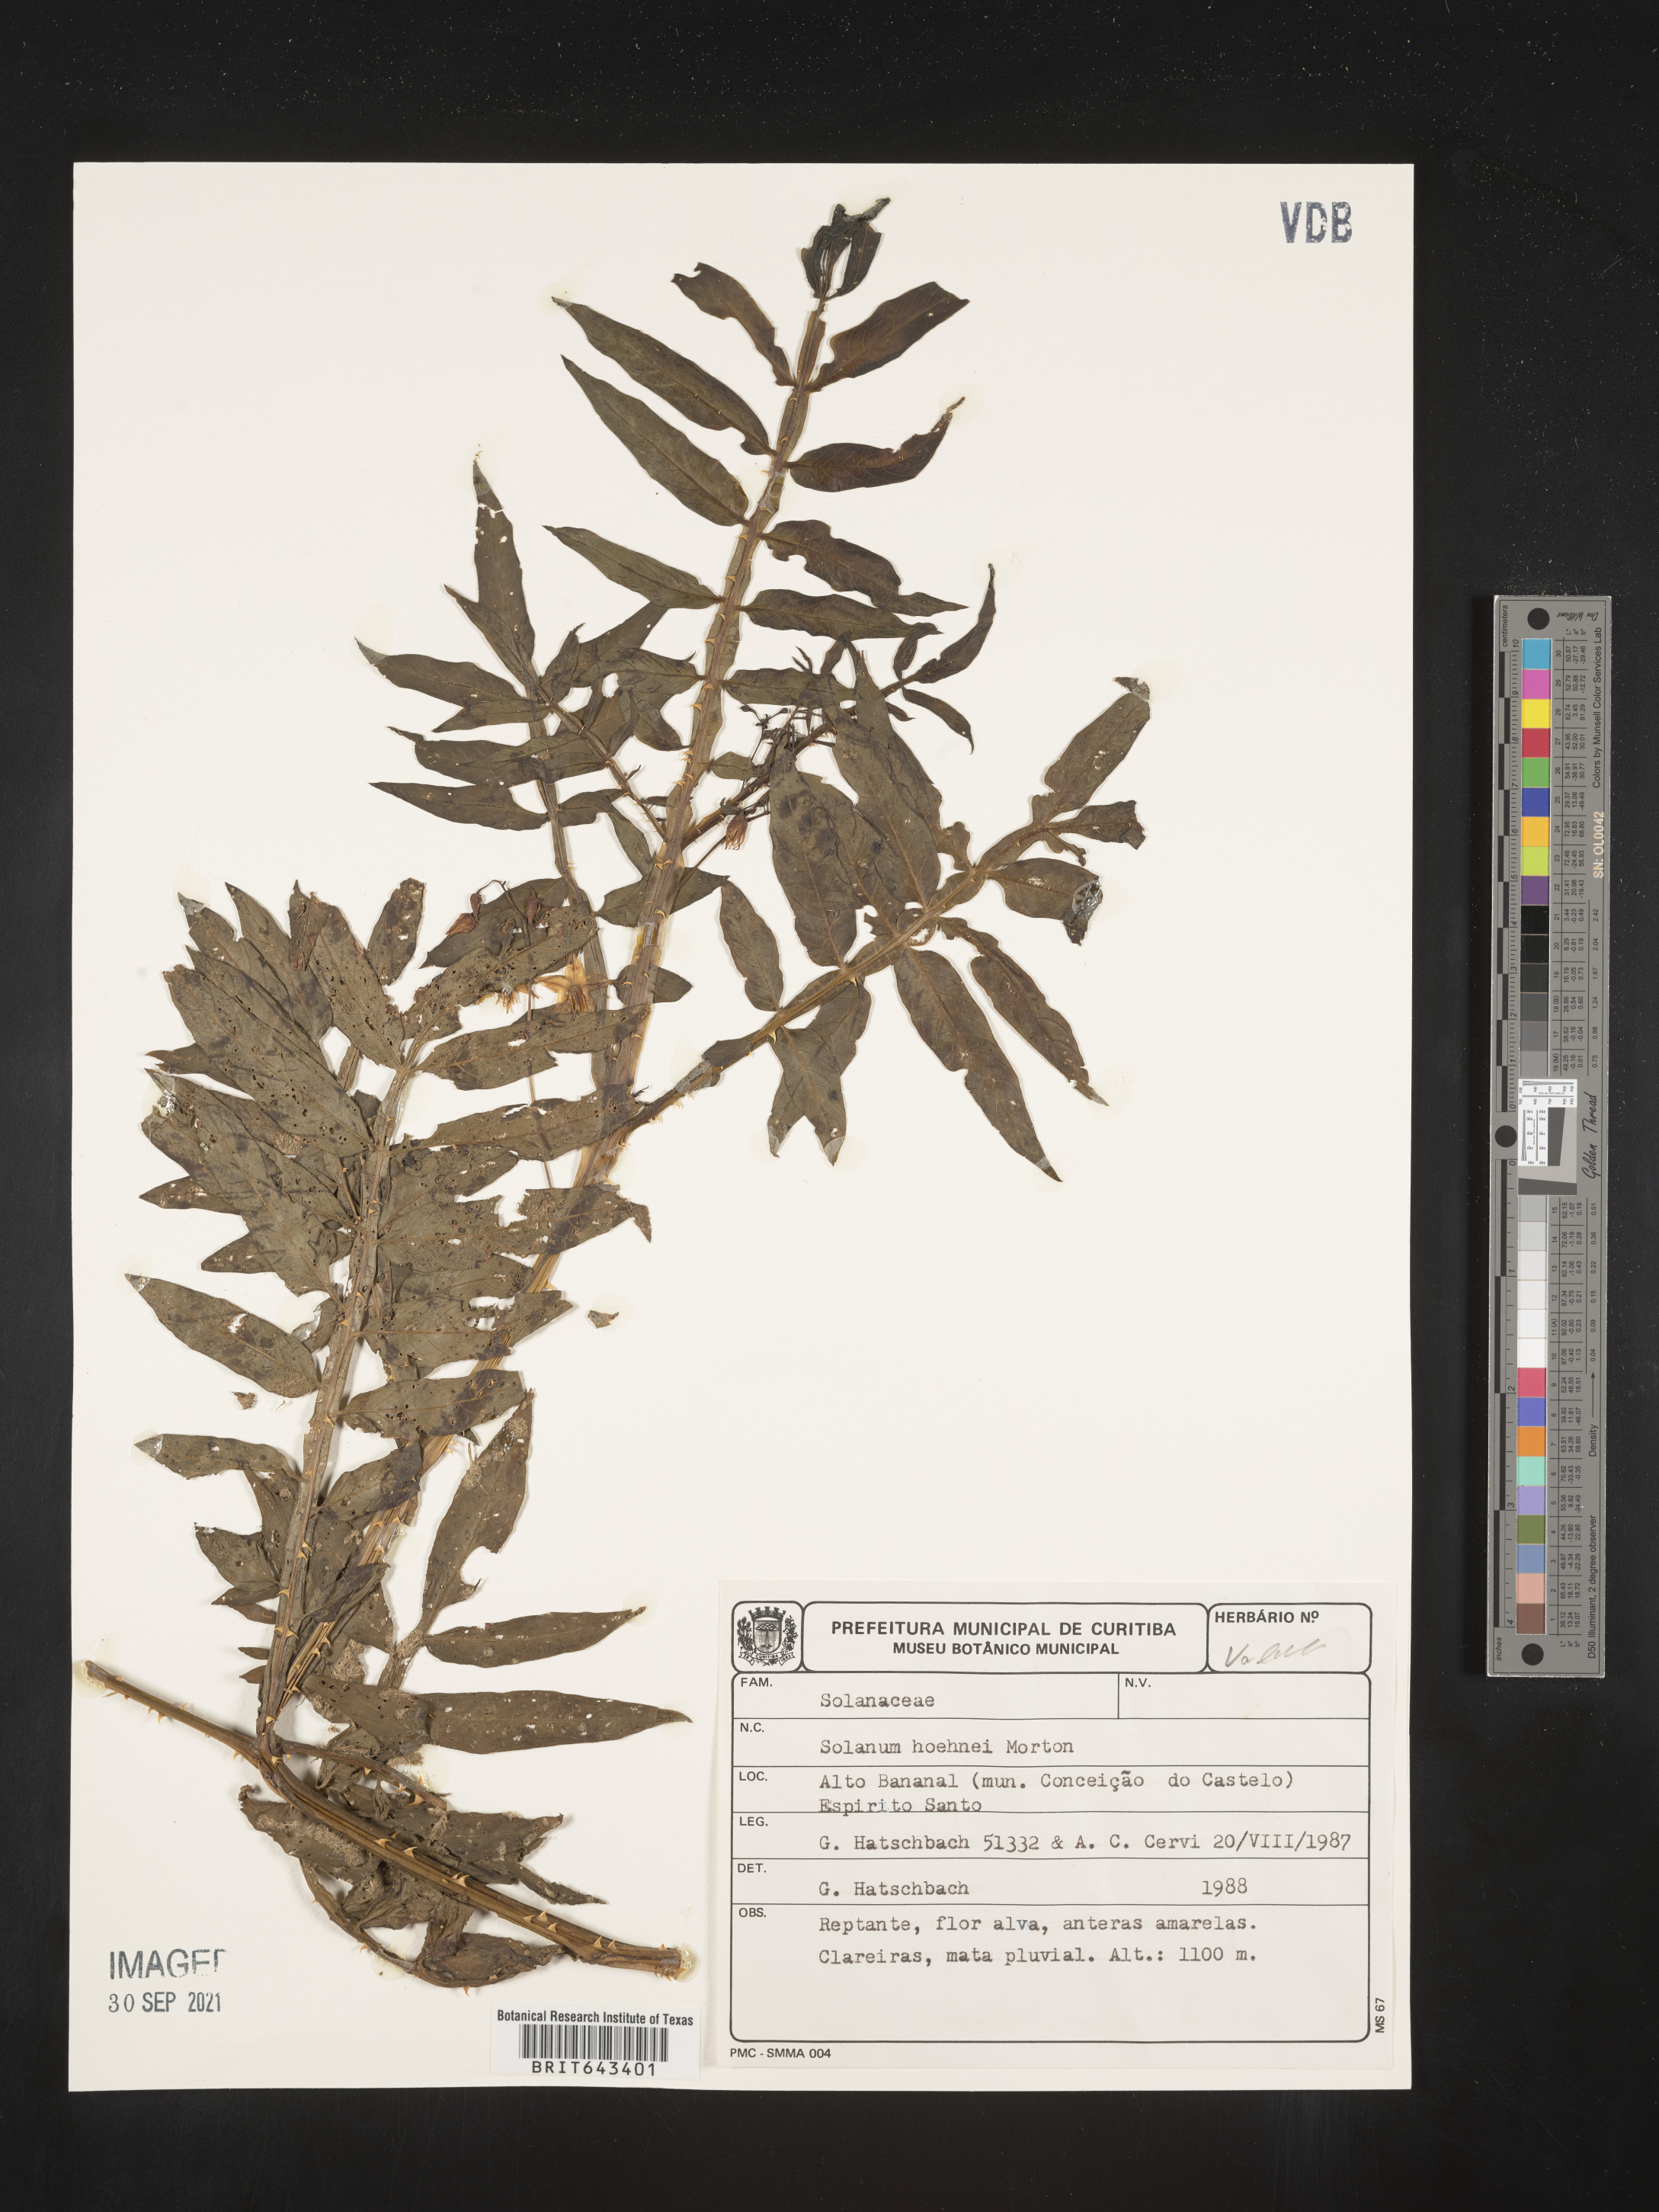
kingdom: Plantae
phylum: Tracheophyta
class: Magnoliopsida
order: Solanales
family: Solanaceae
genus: Solanum
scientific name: Solanum
